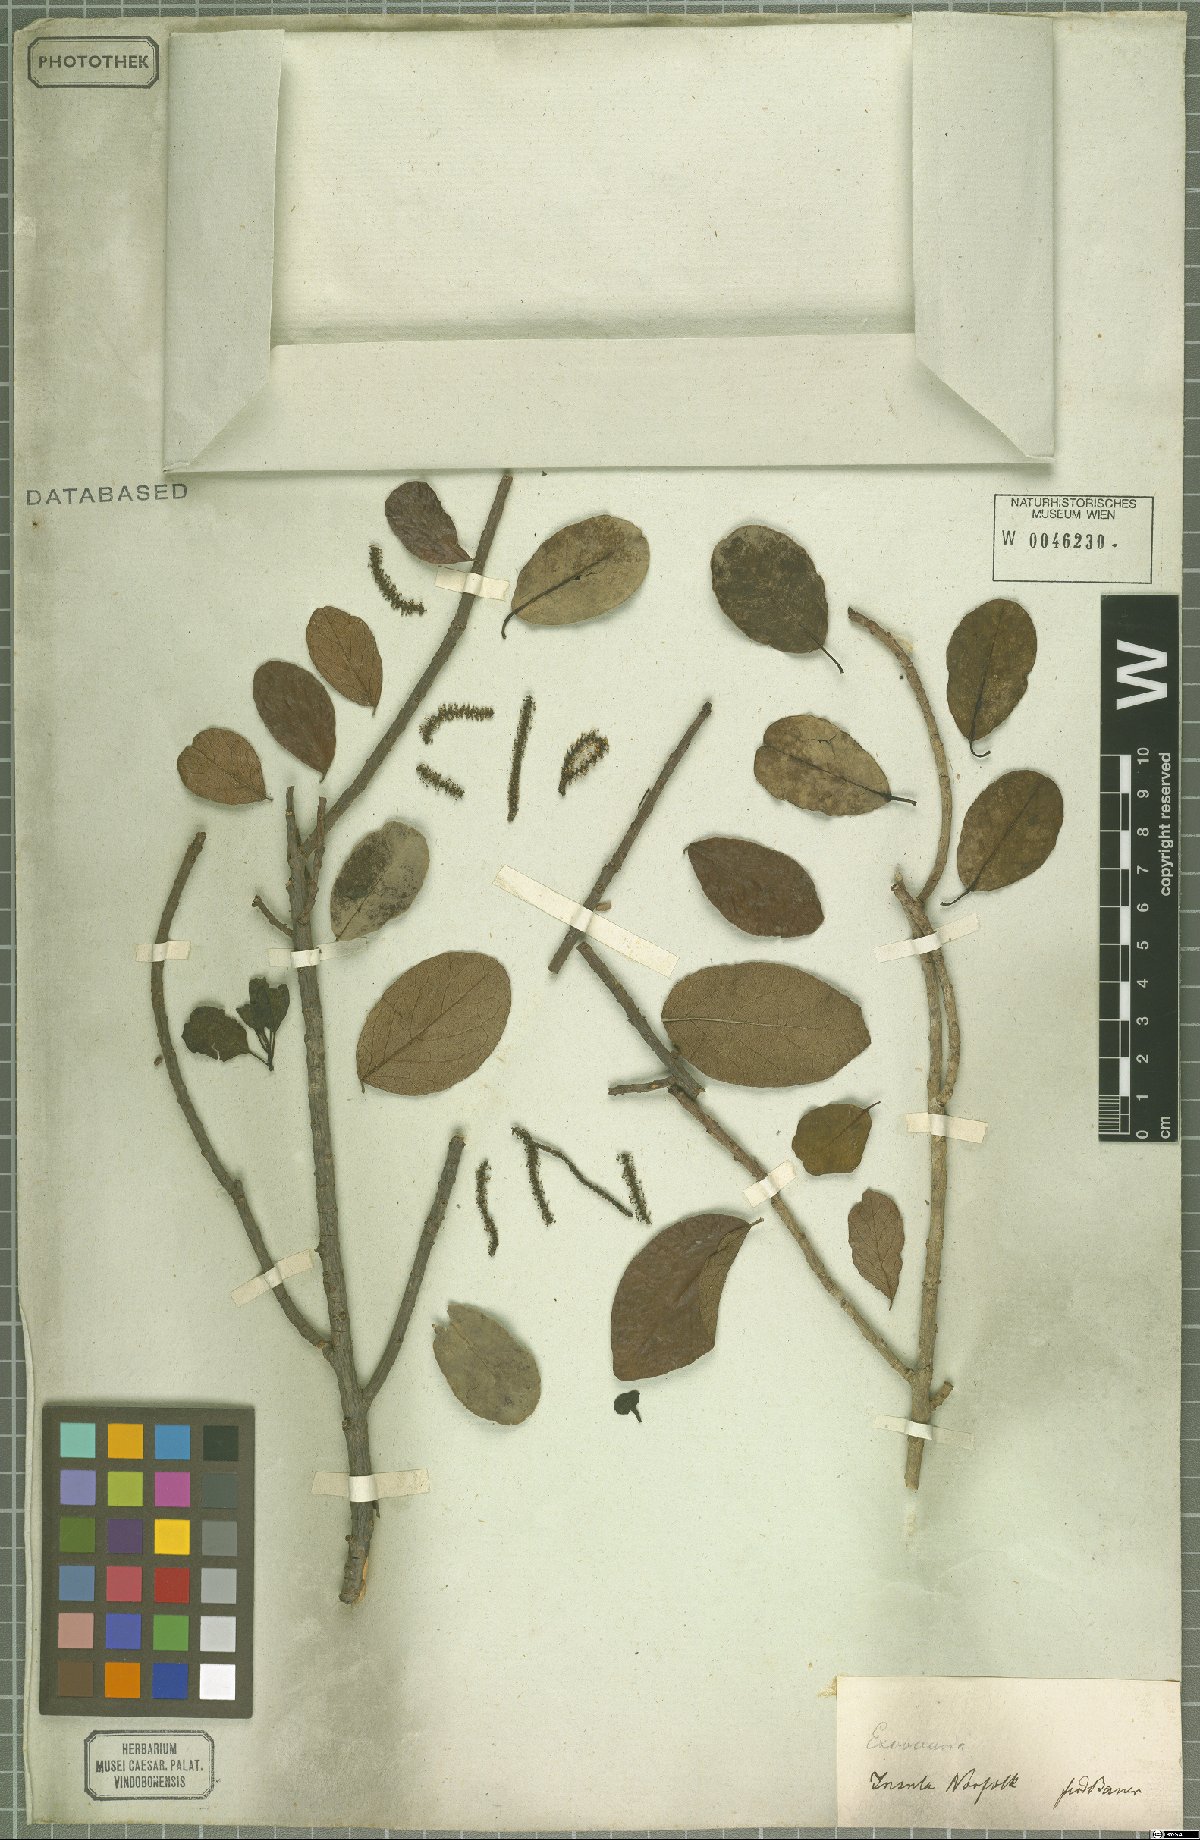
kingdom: Plantae
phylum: Tracheophyta
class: Magnoliopsida
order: Malpighiales
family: Euphorbiaceae
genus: Excoecaria
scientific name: Excoecaria
